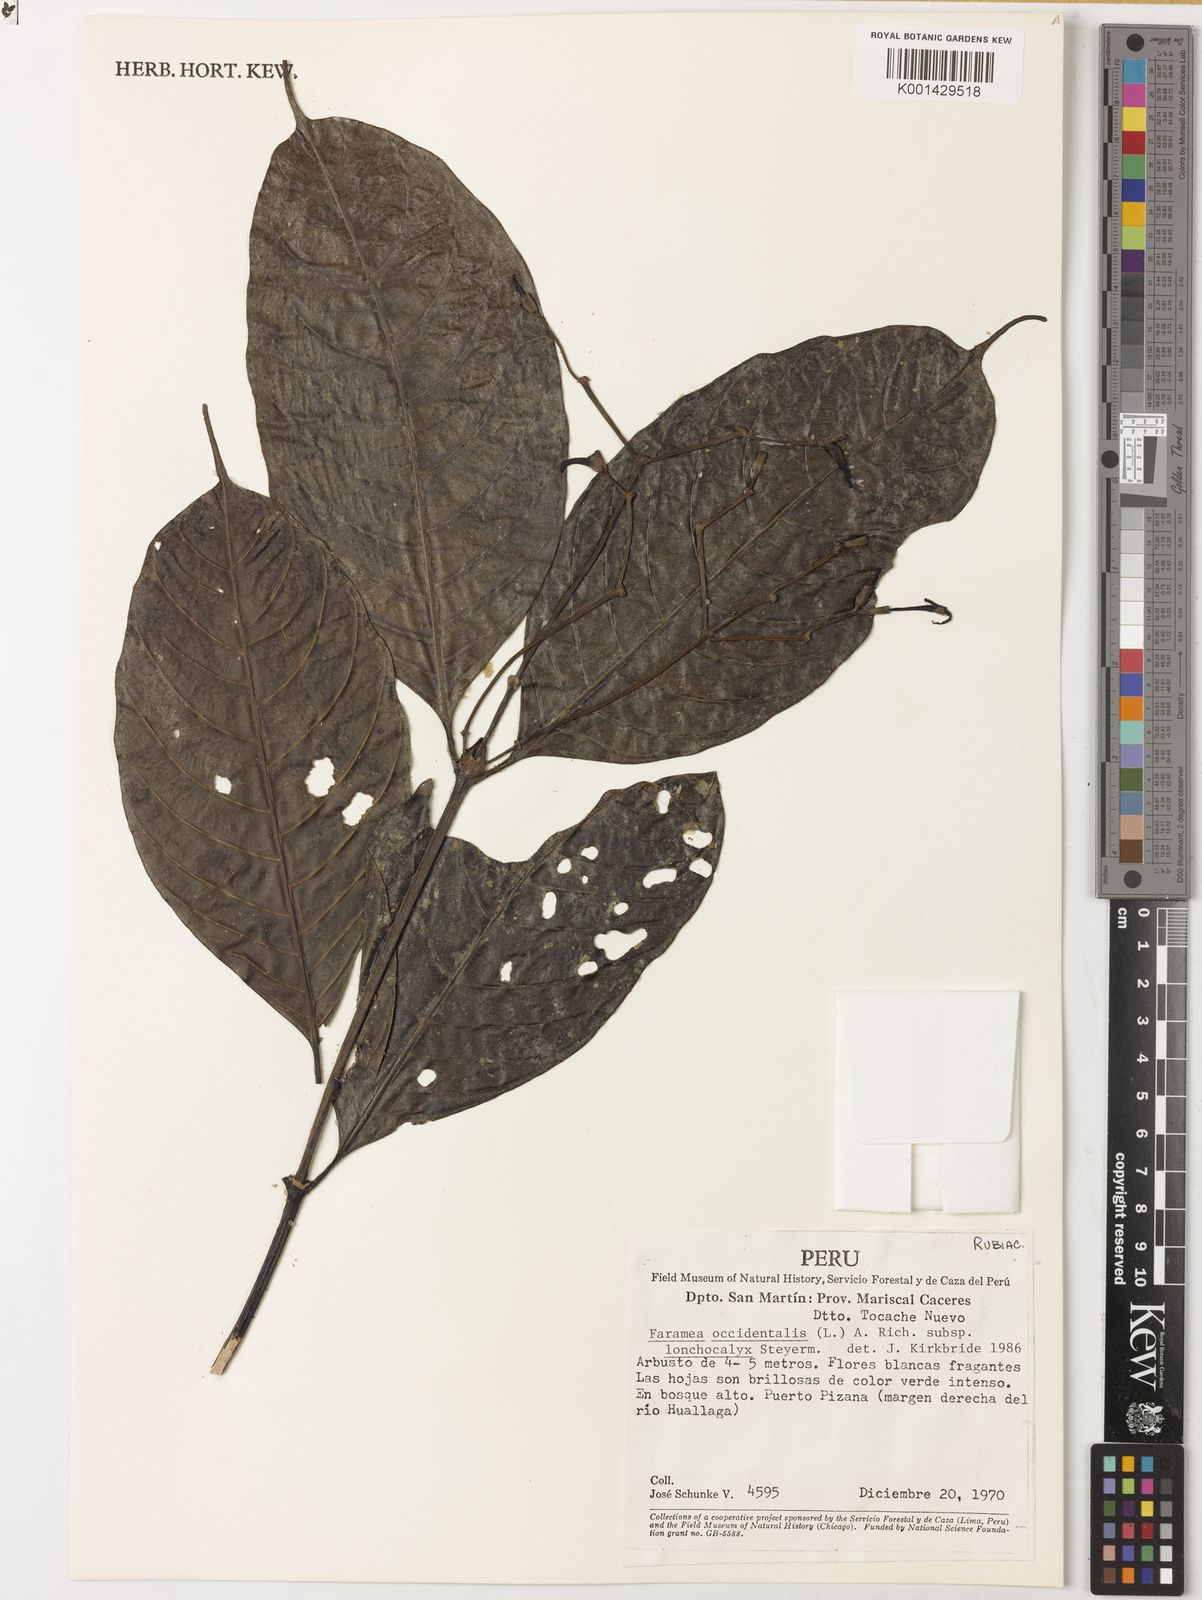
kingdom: Plantae
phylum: Tracheophyta
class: Magnoliopsida
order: Gentianales
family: Rubiaceae
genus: Faramea
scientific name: Faramea spathacea
